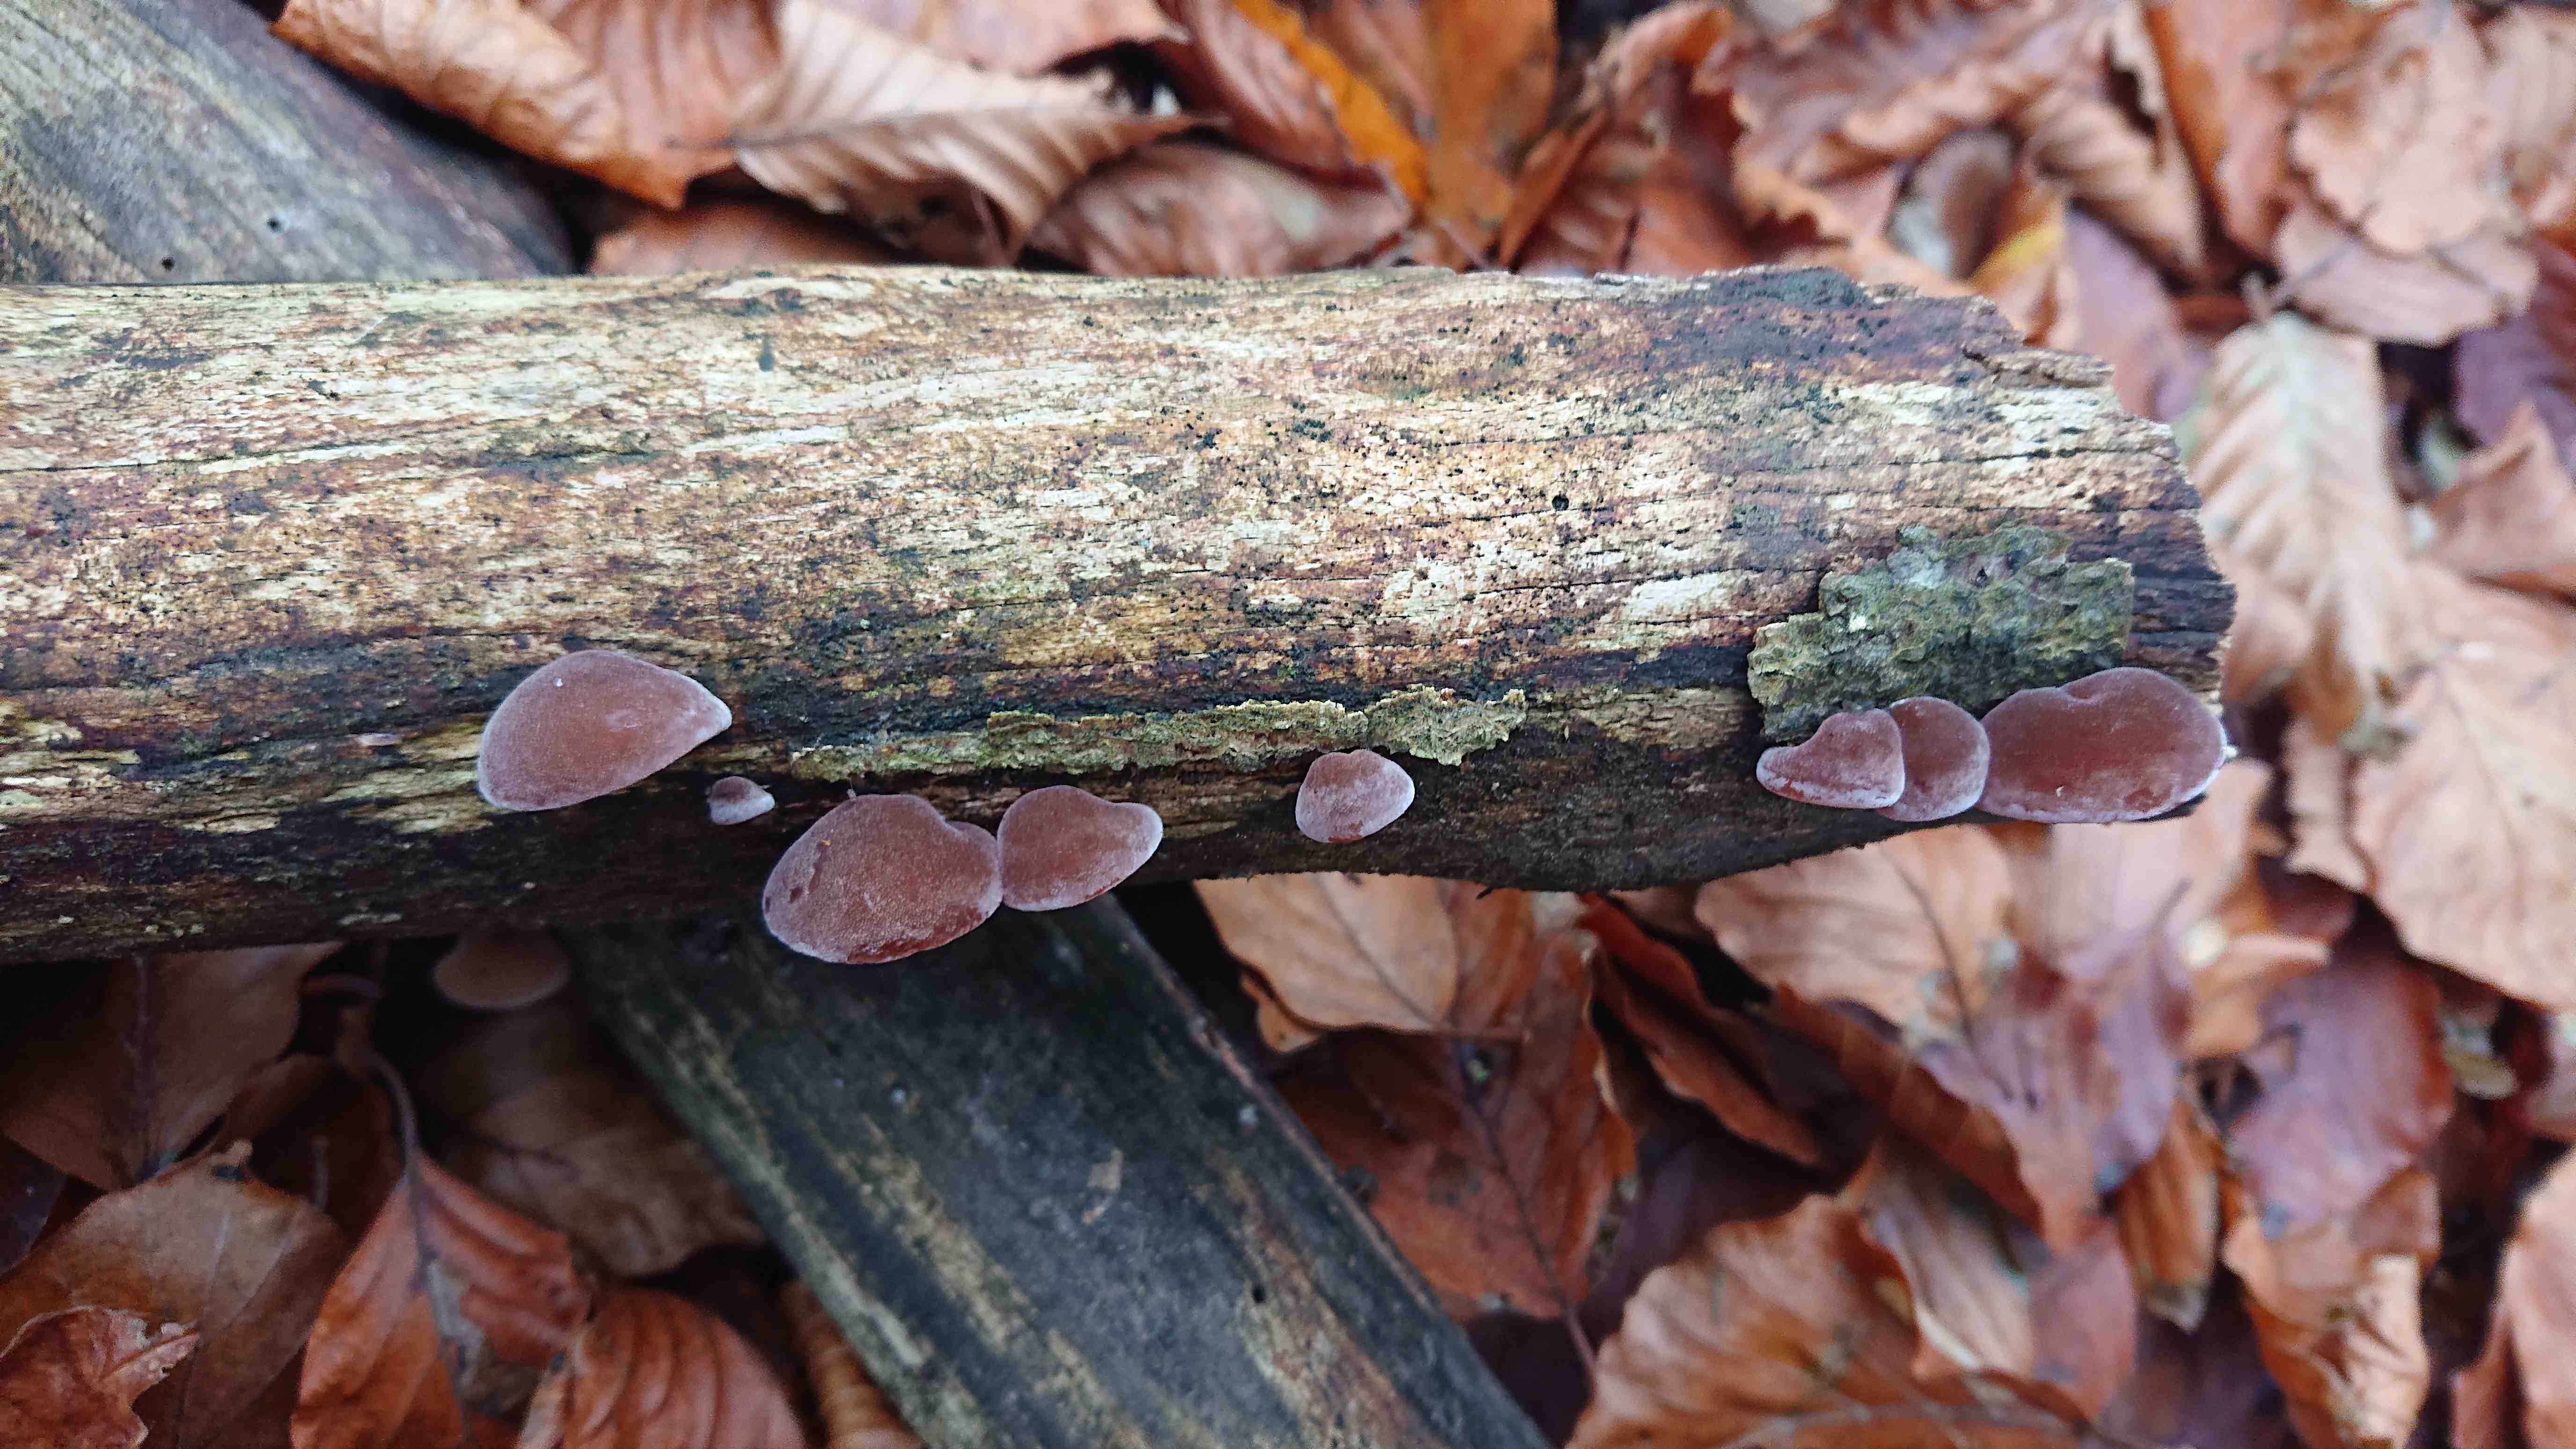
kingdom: Fungi
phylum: Basidiomycota
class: Agaricomycetes
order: Auriculariales
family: Auriculariaceae
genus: Auricularia
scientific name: Auricularia auricula-judae
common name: almindelig judasøre
